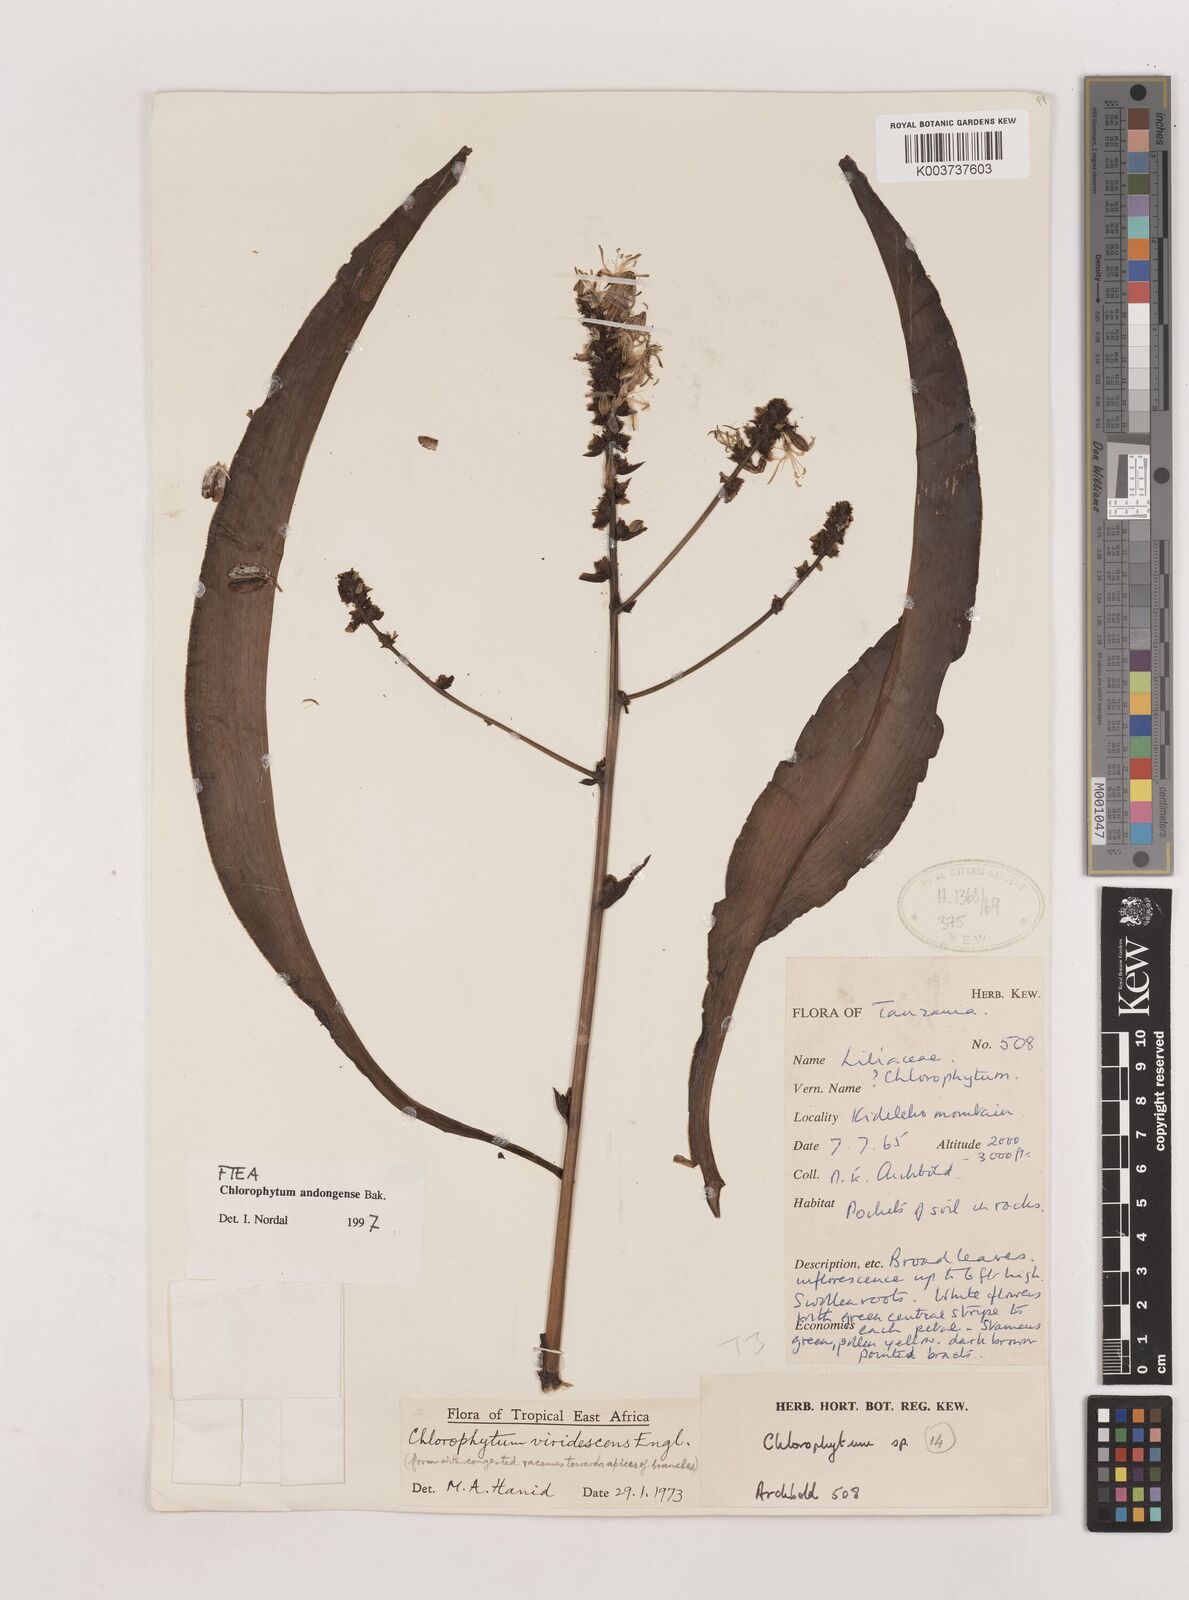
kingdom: Plantae
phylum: Tracheophyta
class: Liliopsida
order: Asparagales
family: Asparagaceae
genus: Chlorophytum
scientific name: Chlorophytum andongense
